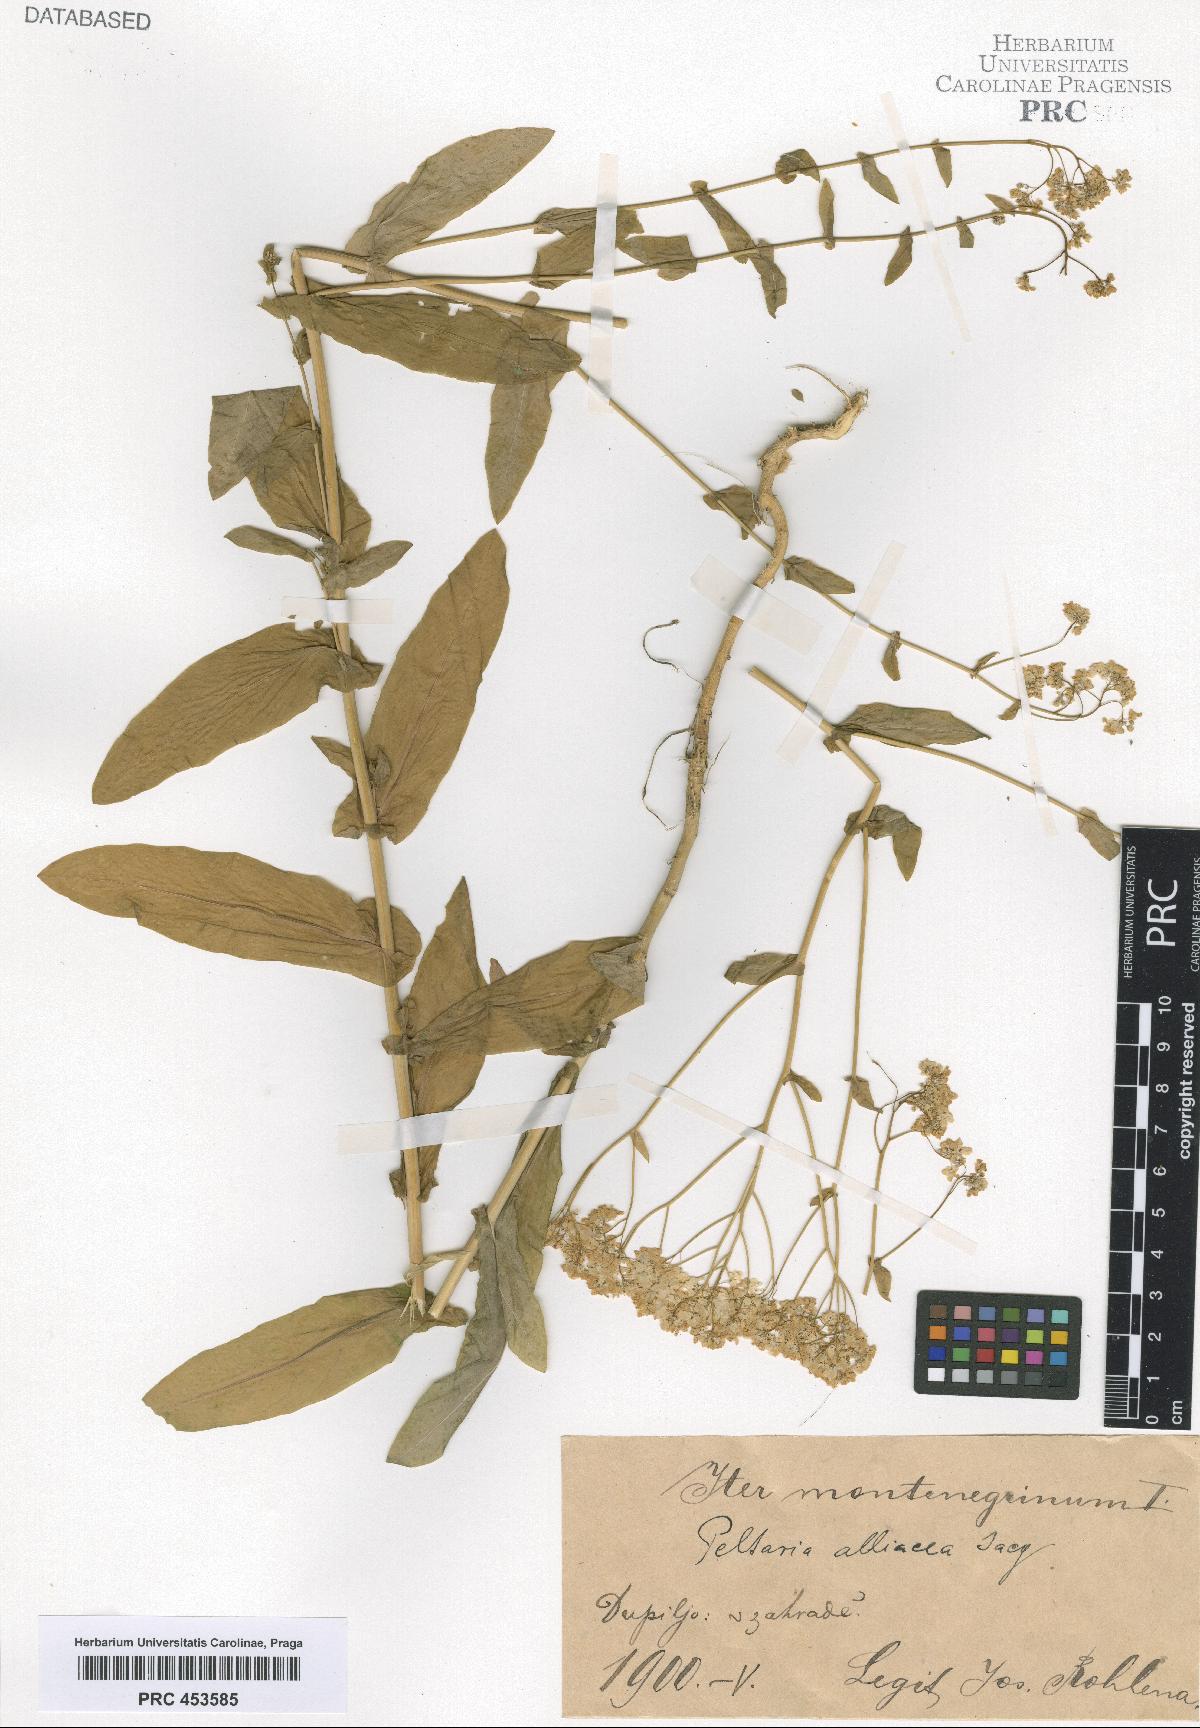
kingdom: Plantae
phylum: Tracheophyta
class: Magnoliopsida
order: Brassicales
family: Brassicaceae
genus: Peltaria
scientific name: Peltaria alliacea
